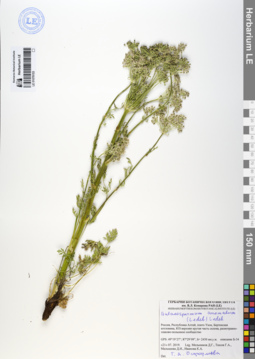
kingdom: Plantae
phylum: Tracheophyta
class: Magnoliopsida
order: Apiales
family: Apiaceae
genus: Aulacospermum
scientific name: Aulacospermum anomalum
